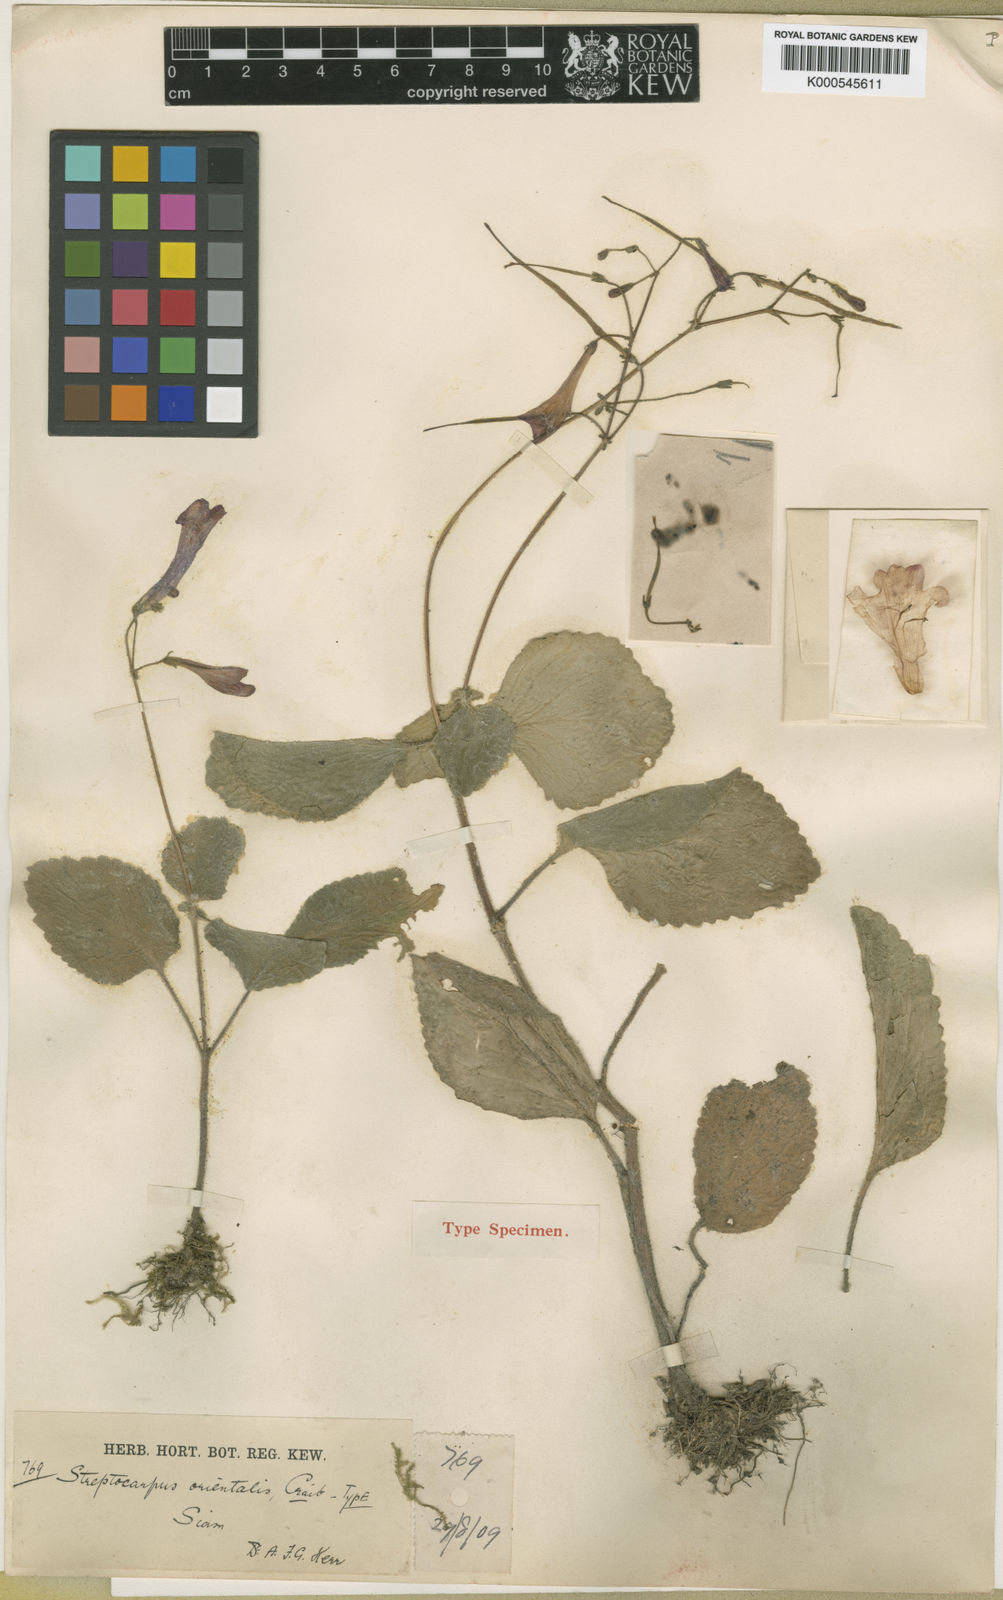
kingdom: Plantae
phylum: Tracheophyta
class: Magnoliopsida
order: Lamiales
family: Gesneriaceae
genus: Damrongia
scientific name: Damrongia orientalis
